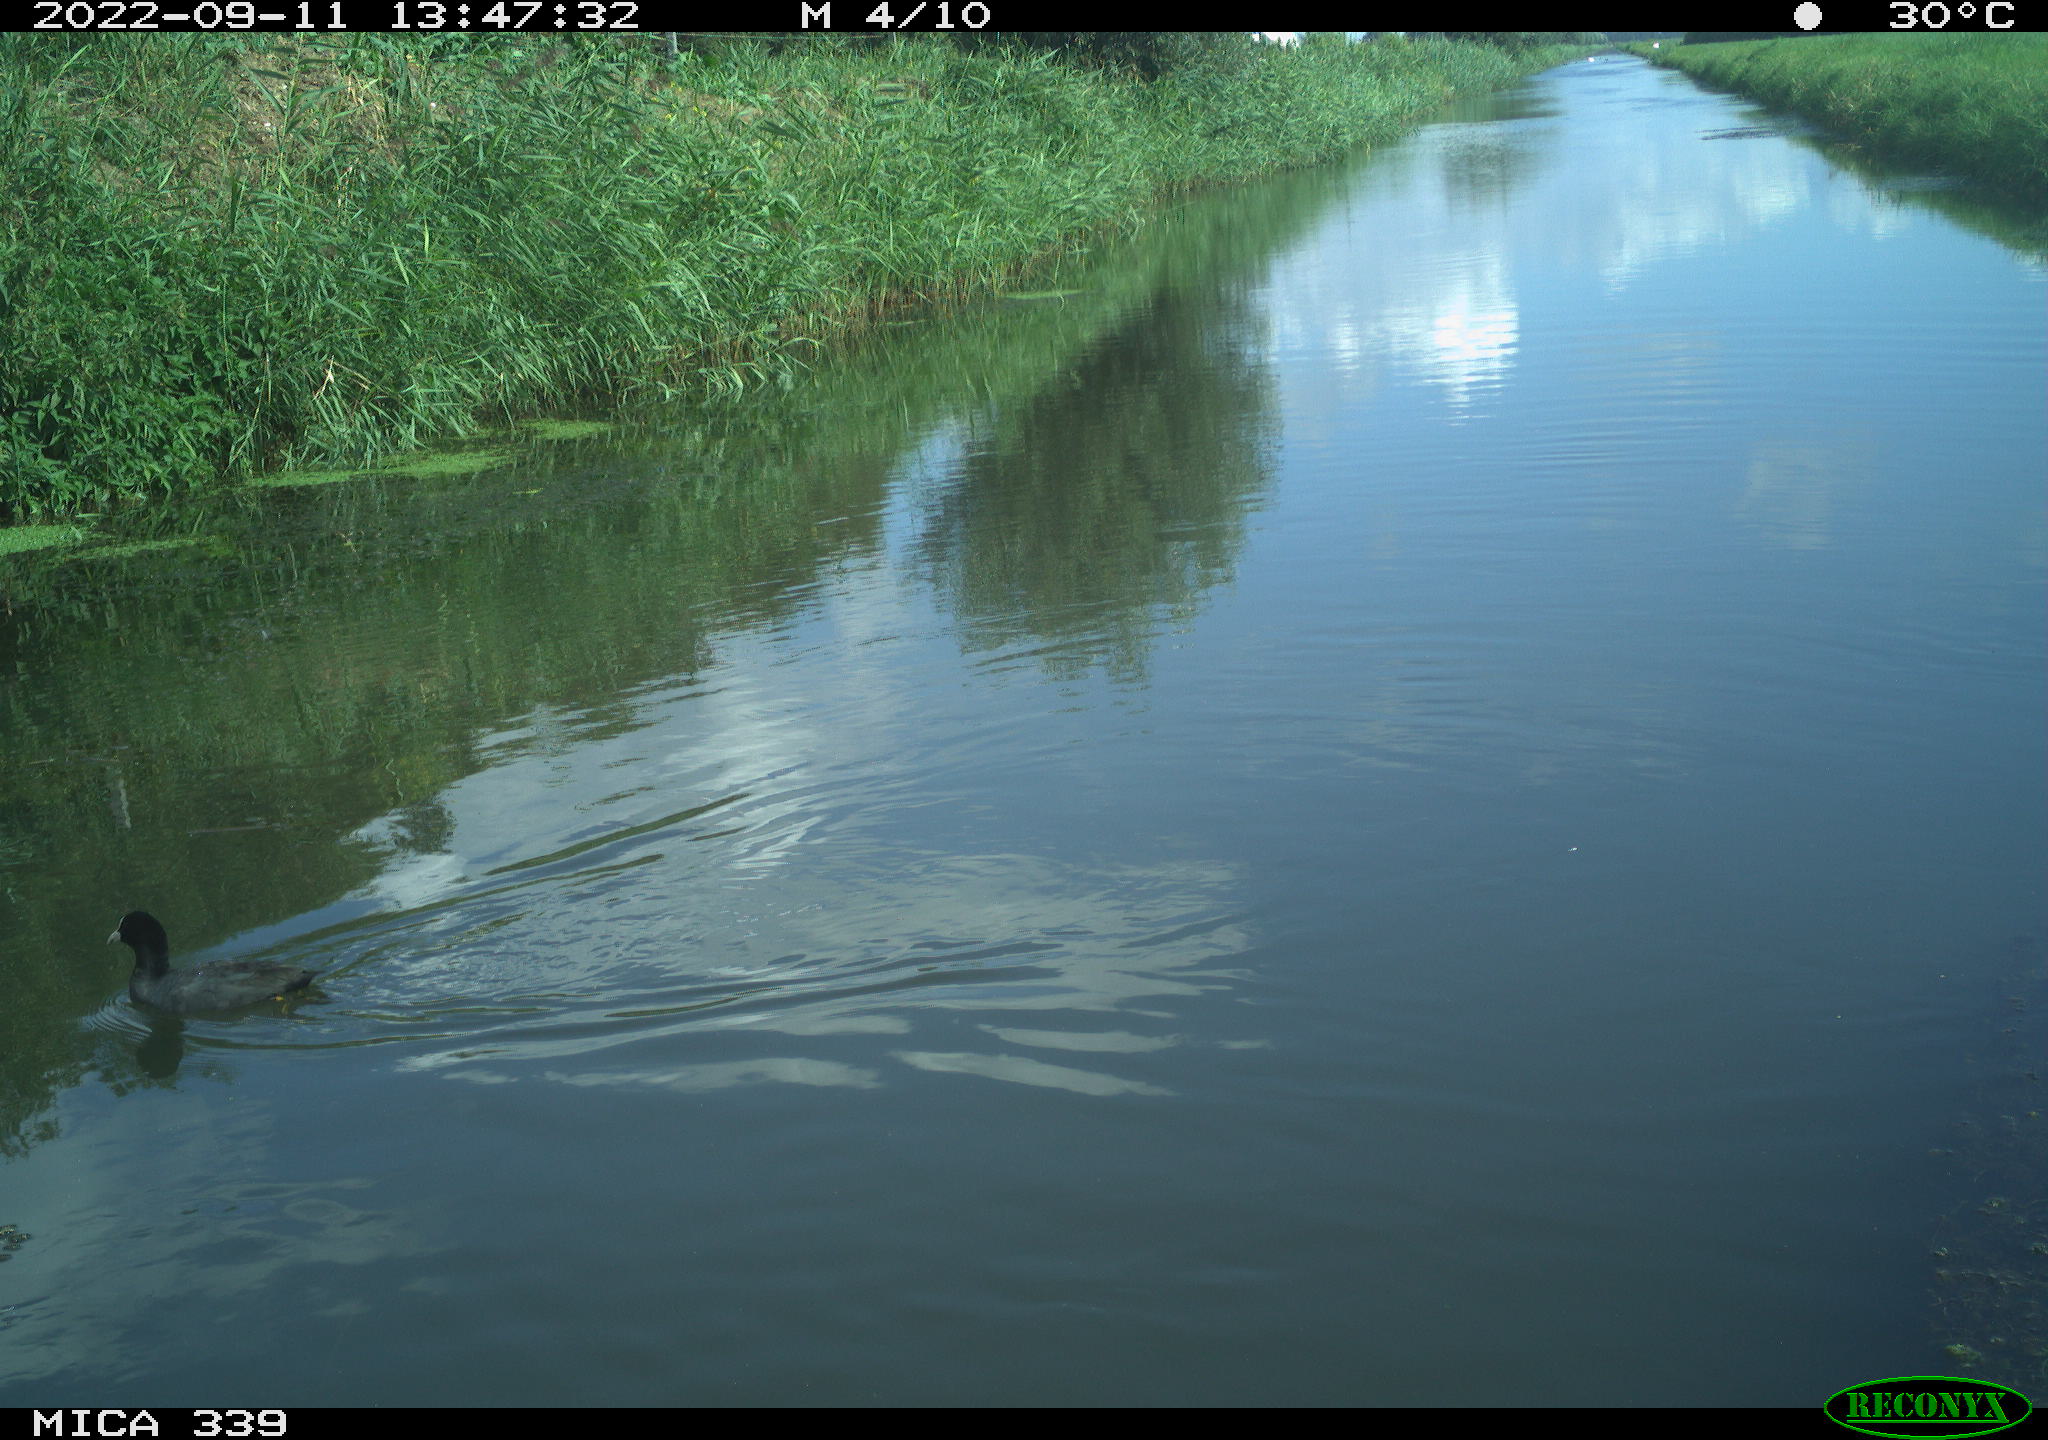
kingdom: Animalia
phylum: Chordata
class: Aves
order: Gruiformes
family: Rallidae
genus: Fulica
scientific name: Fulica atra
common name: Eurasian coot
